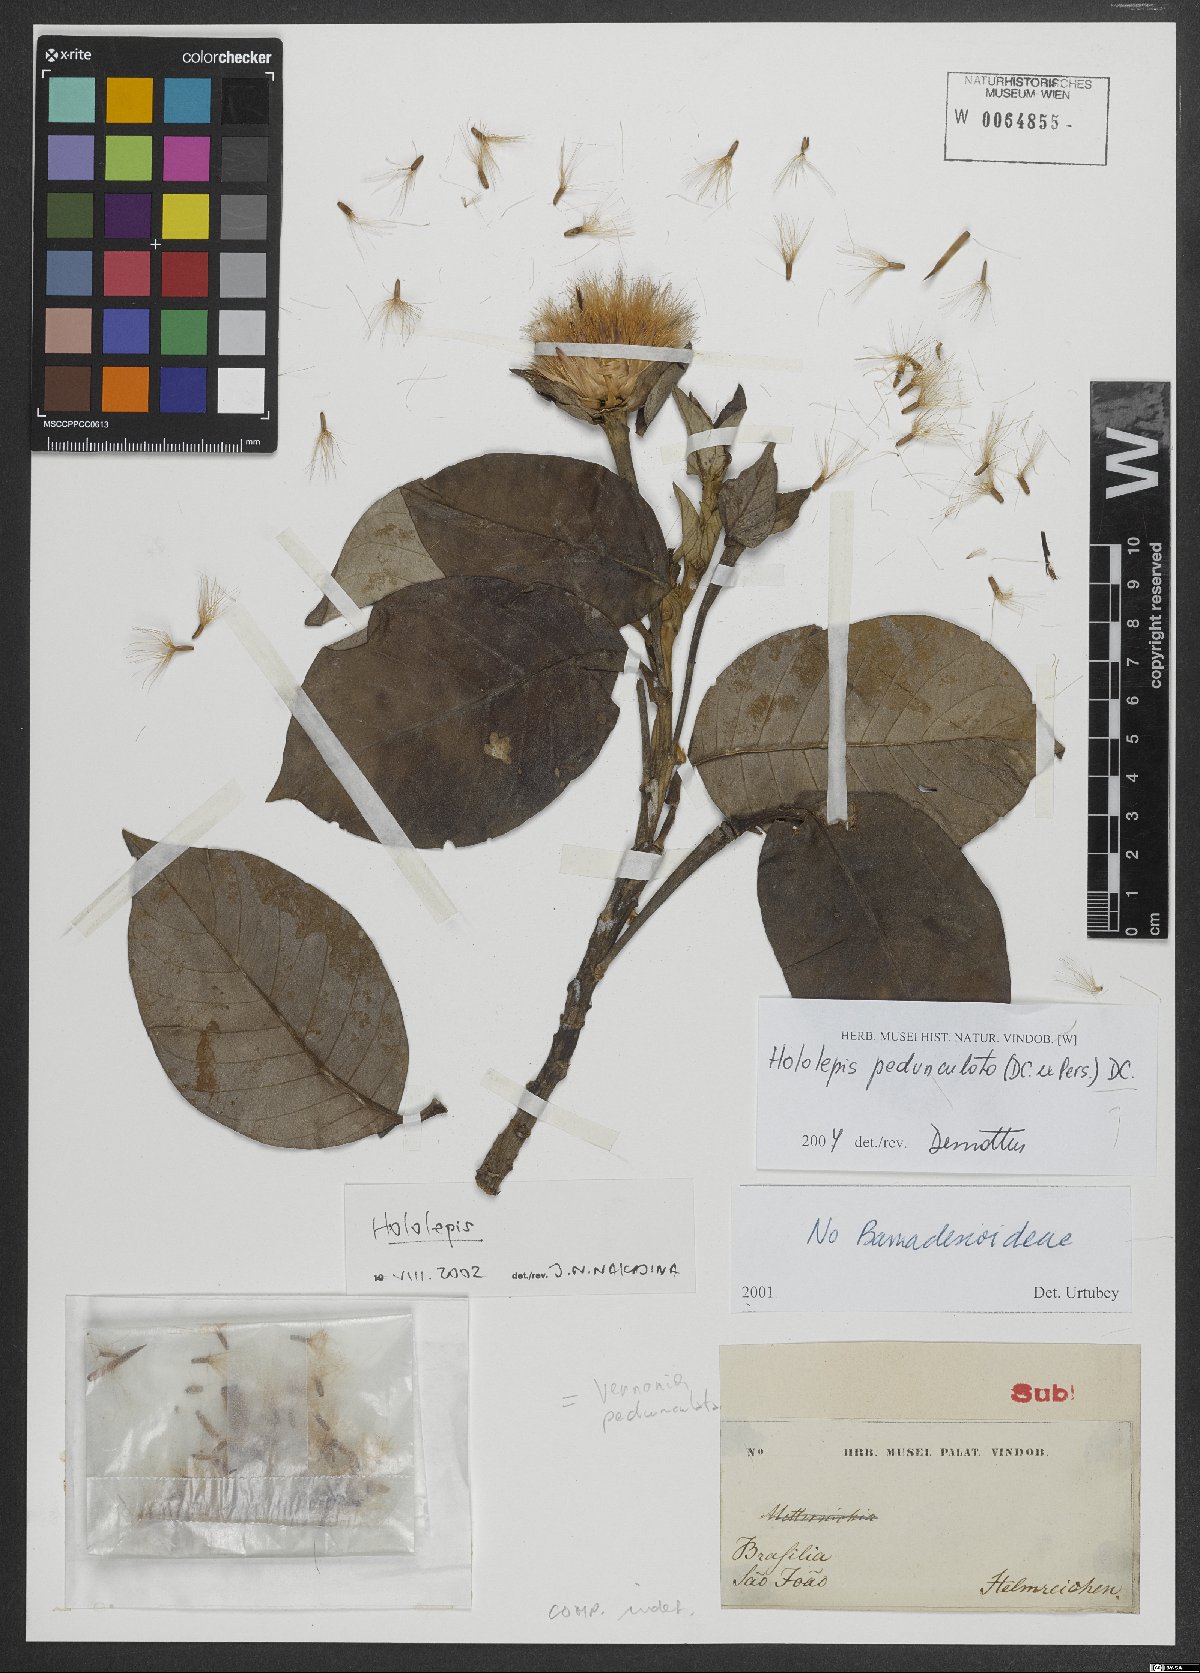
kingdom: Plantae
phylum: Tracheophyta
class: Magnoliopsida
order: Asterales
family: Asteraceae
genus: Hololepis
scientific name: Hololepis pedunculata
